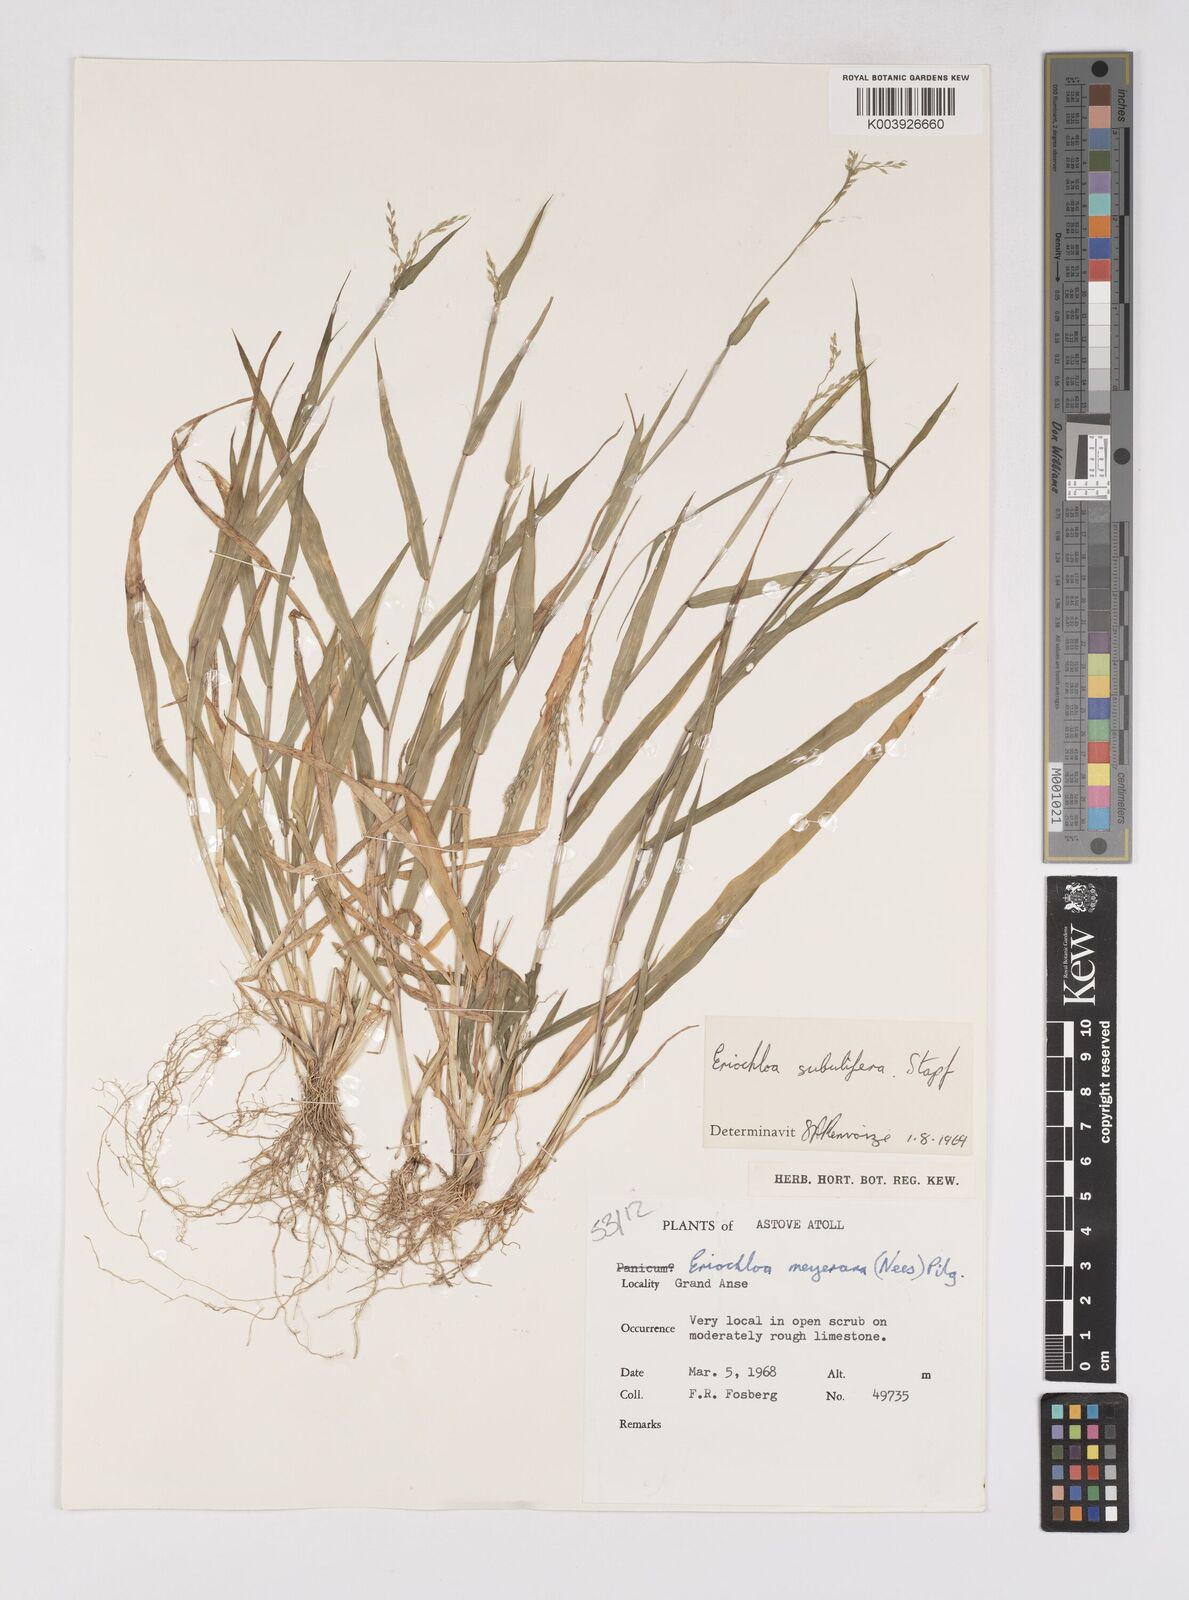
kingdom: Plantae
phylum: Tracheophyta
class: Liliopsida
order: Poales
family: Poaceae
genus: Eriochloa
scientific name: Eriochloa subulifera
